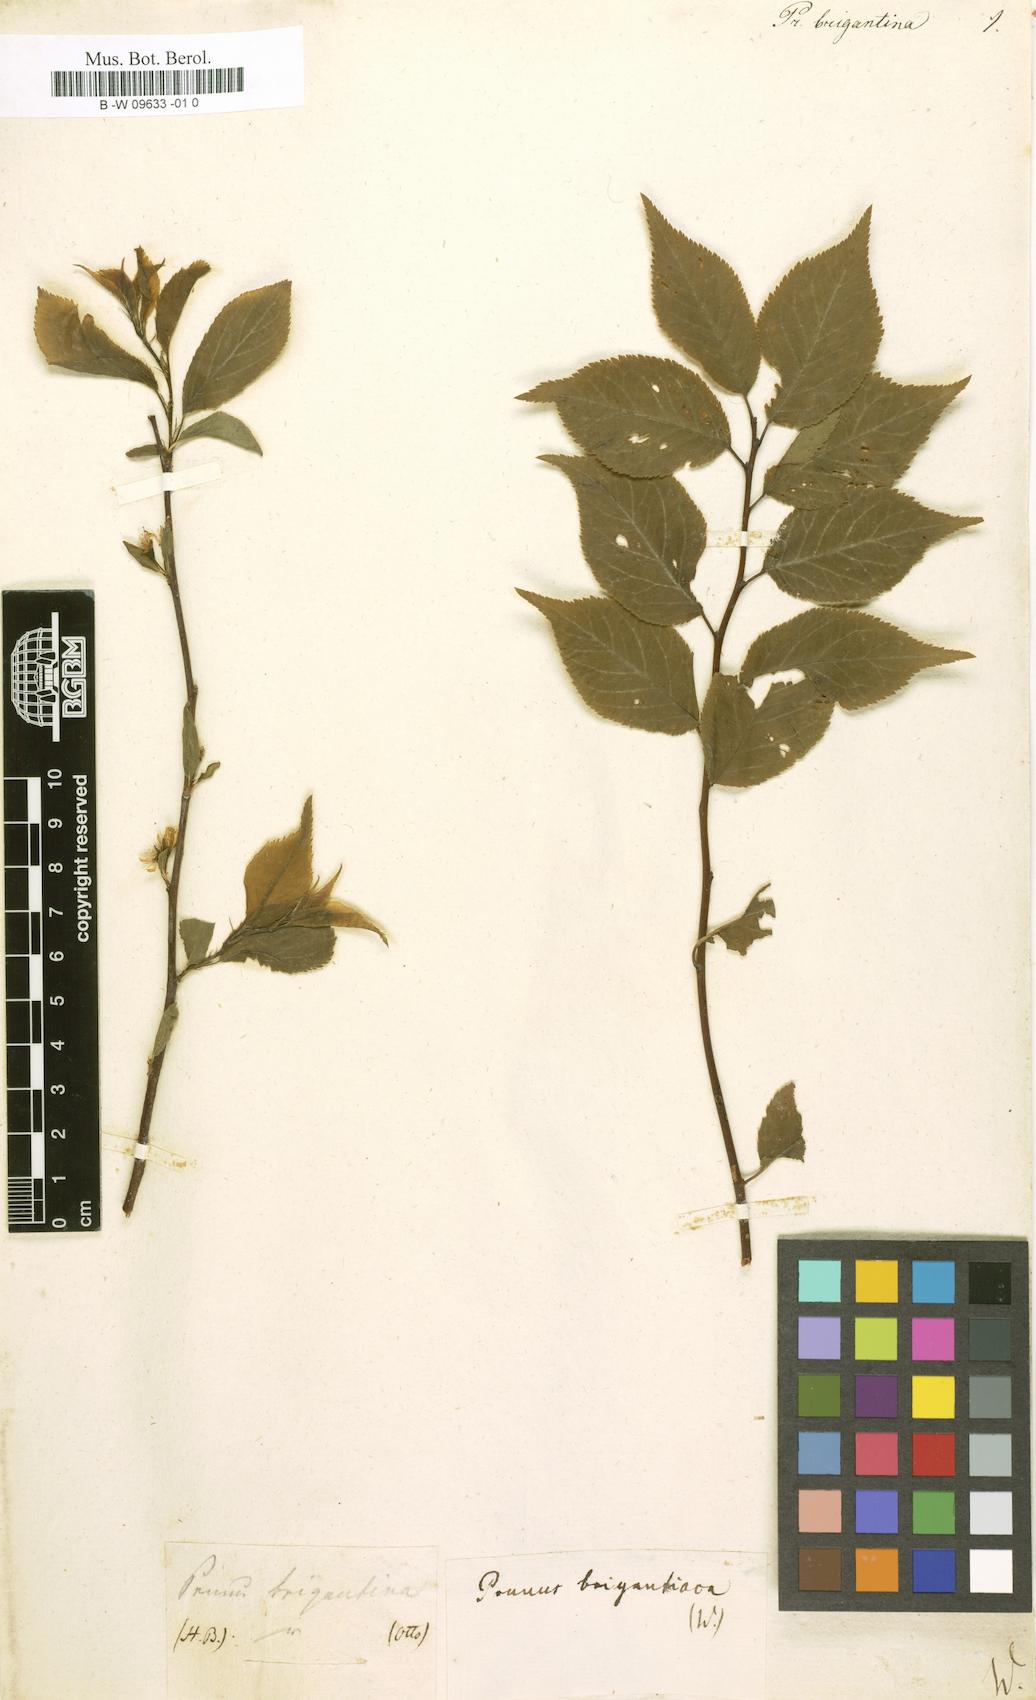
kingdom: Plantae
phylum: Tracheophyta
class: Magnoliopsida
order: Rosales
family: Rosaceae
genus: Prunus
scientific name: Prunus brigantina
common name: Briançon apricot
